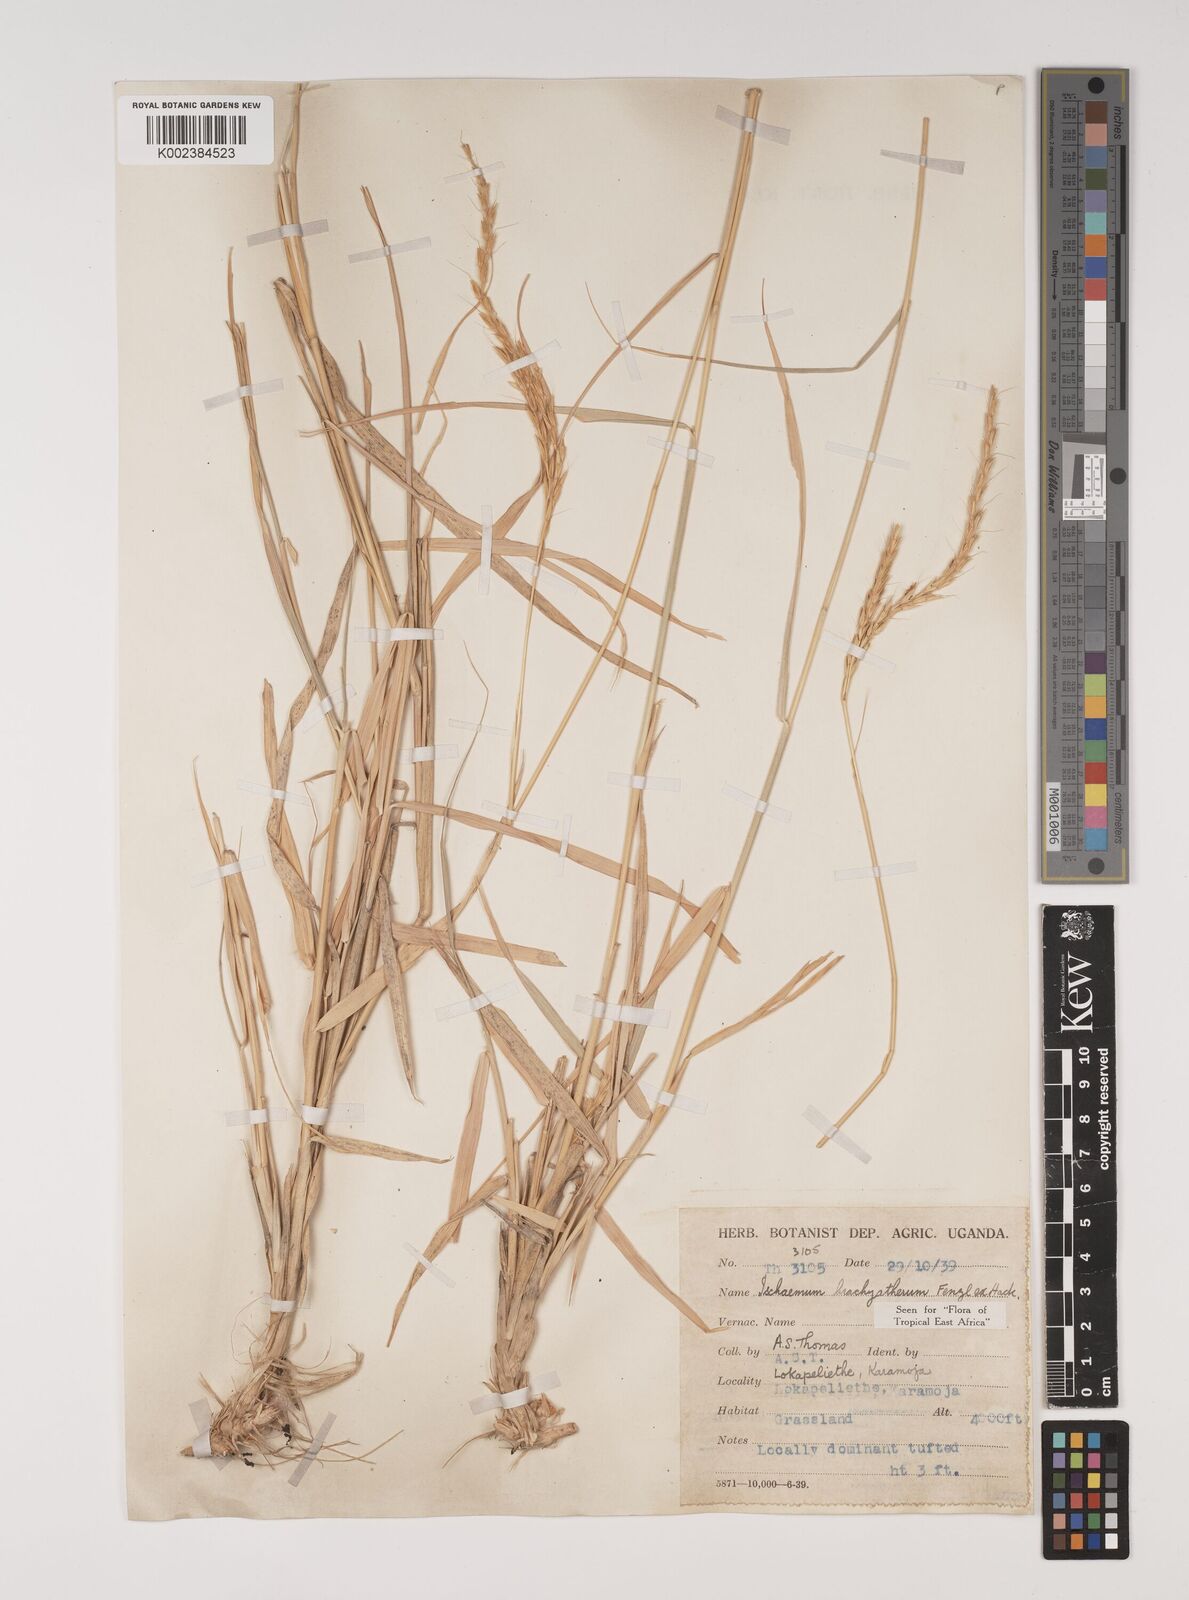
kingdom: Plantae
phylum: Tracheophyta
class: Liliopsida
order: Poales
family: Poaceae
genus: Ischaemum
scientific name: Ischaemum afrum
